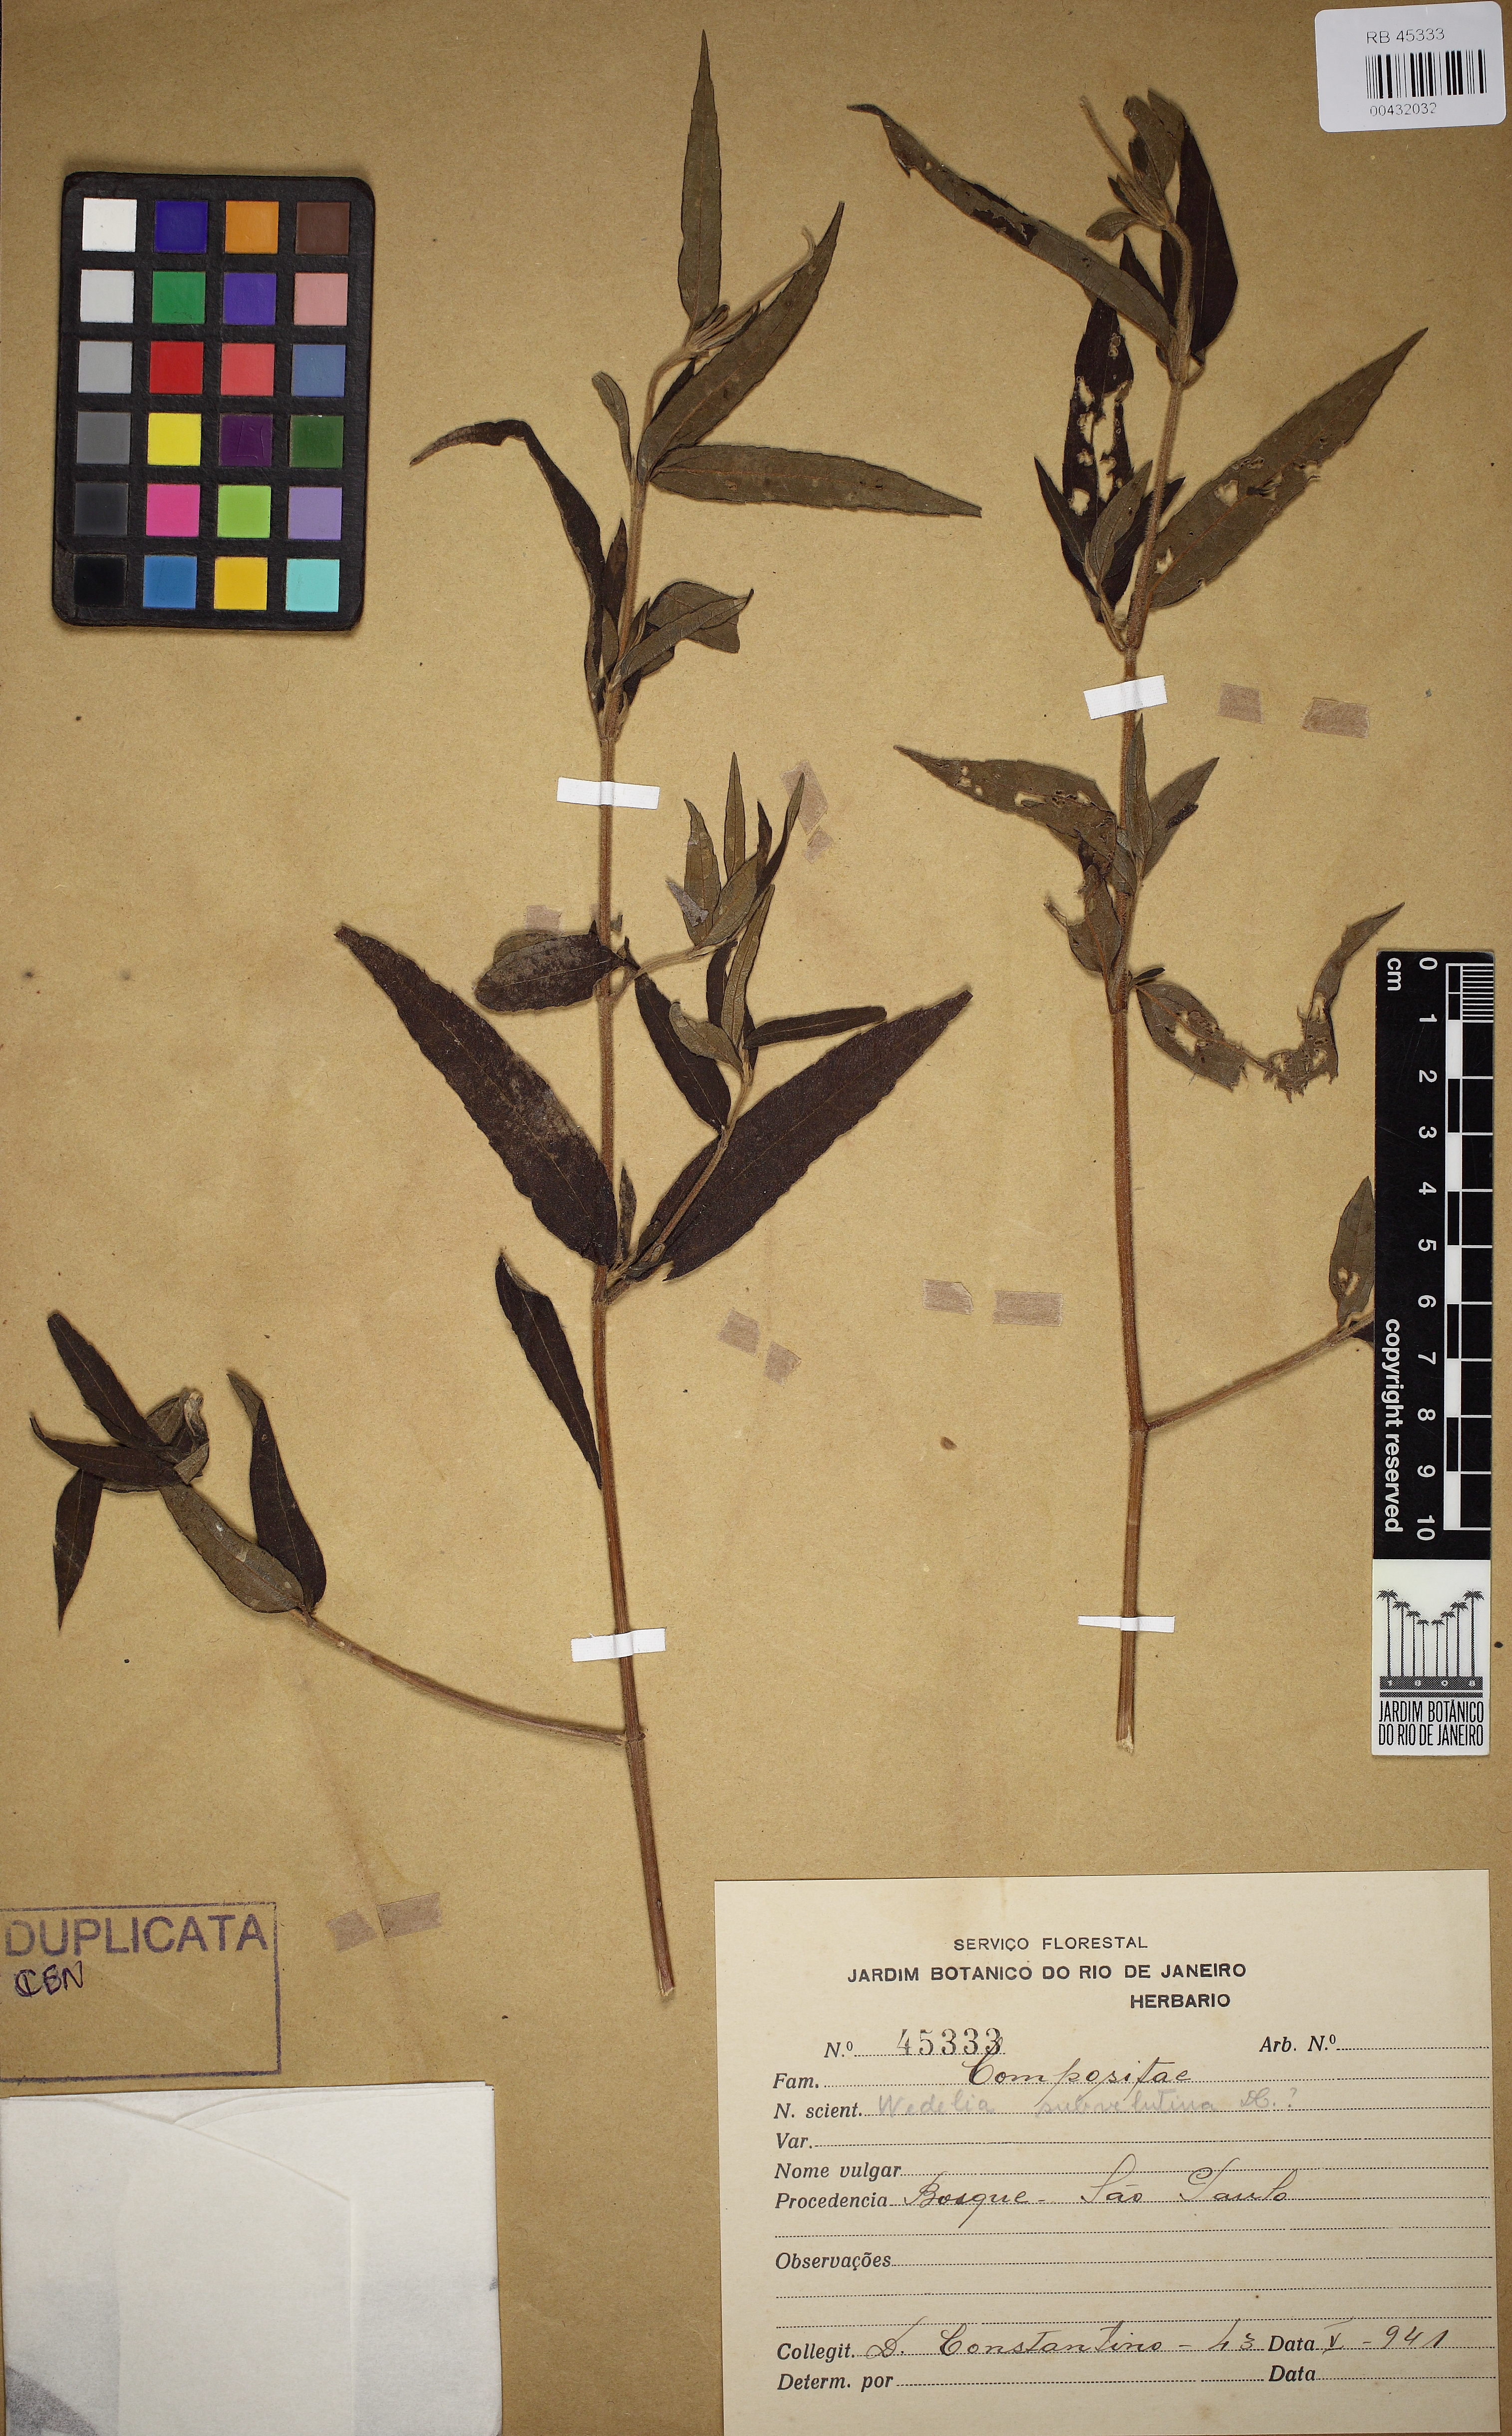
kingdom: Plantae
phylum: Tracheophyta
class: Magnoliopsida
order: Asterales
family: Asteraceae
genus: Wedelia
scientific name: Wedelia subvelutina
